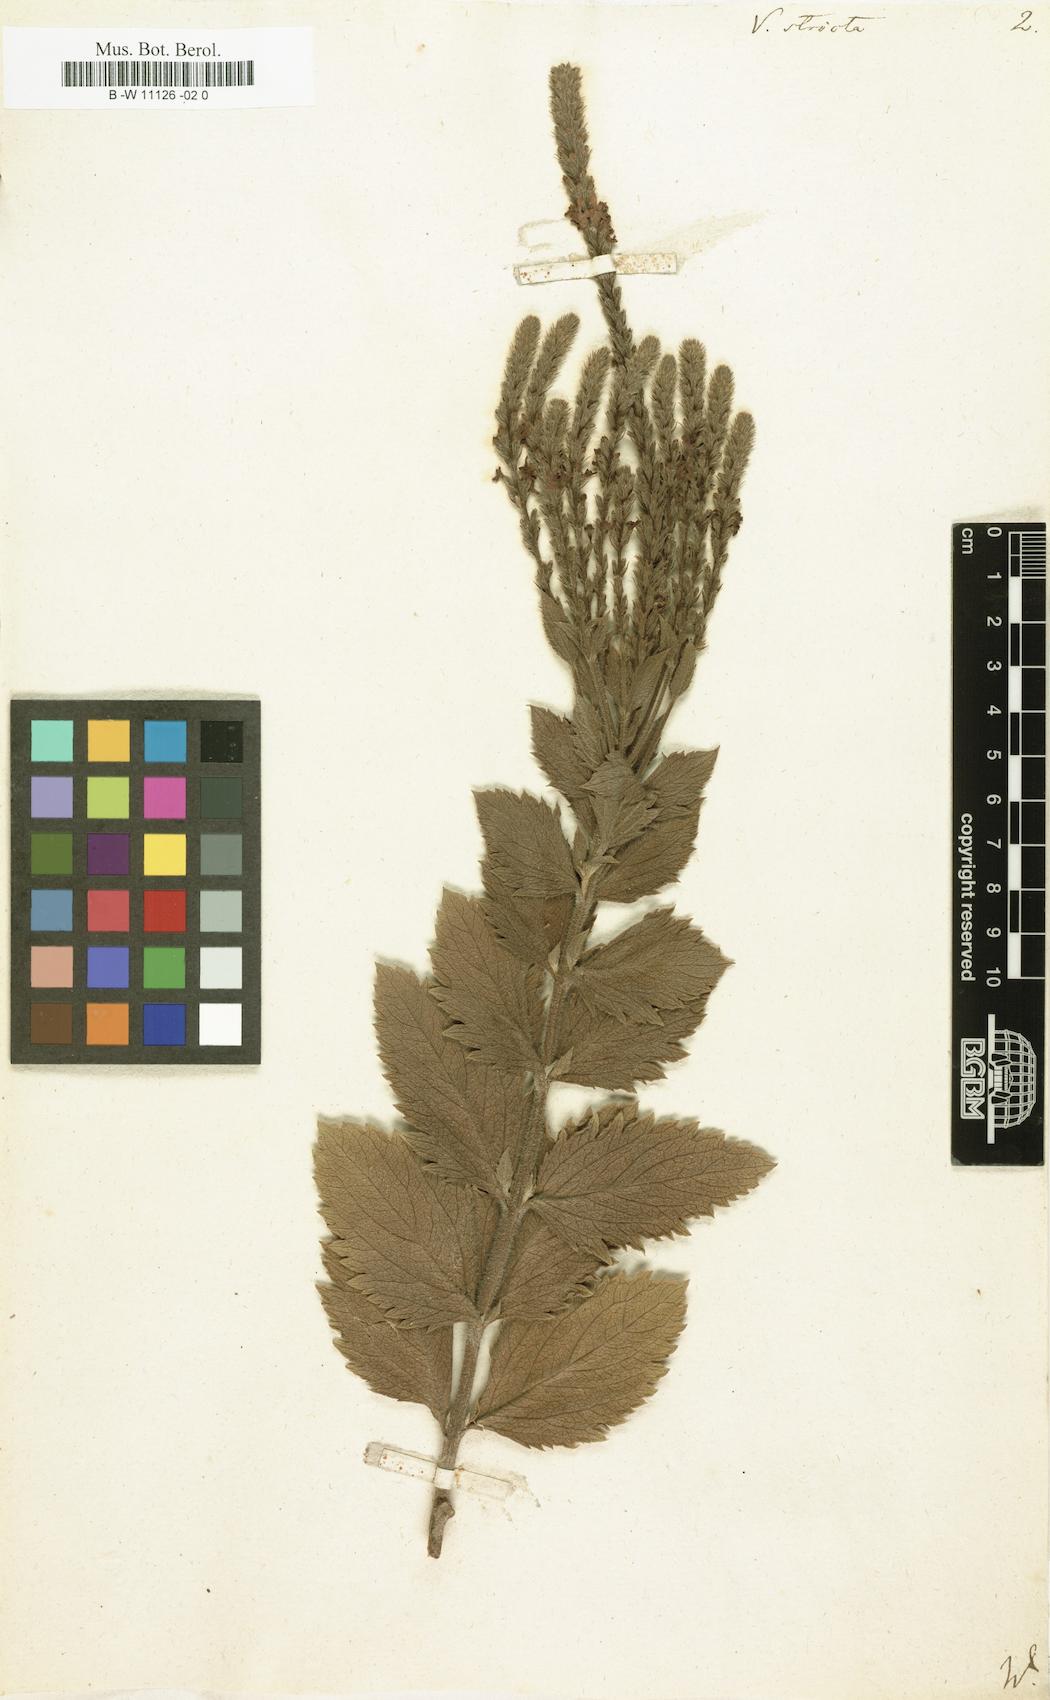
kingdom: Plantae
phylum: Tracheophyta
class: Magnoliopsida
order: Lamiales
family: Verbenaceae
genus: Verbena
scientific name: Verbena stricta
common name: Hoary vervain
